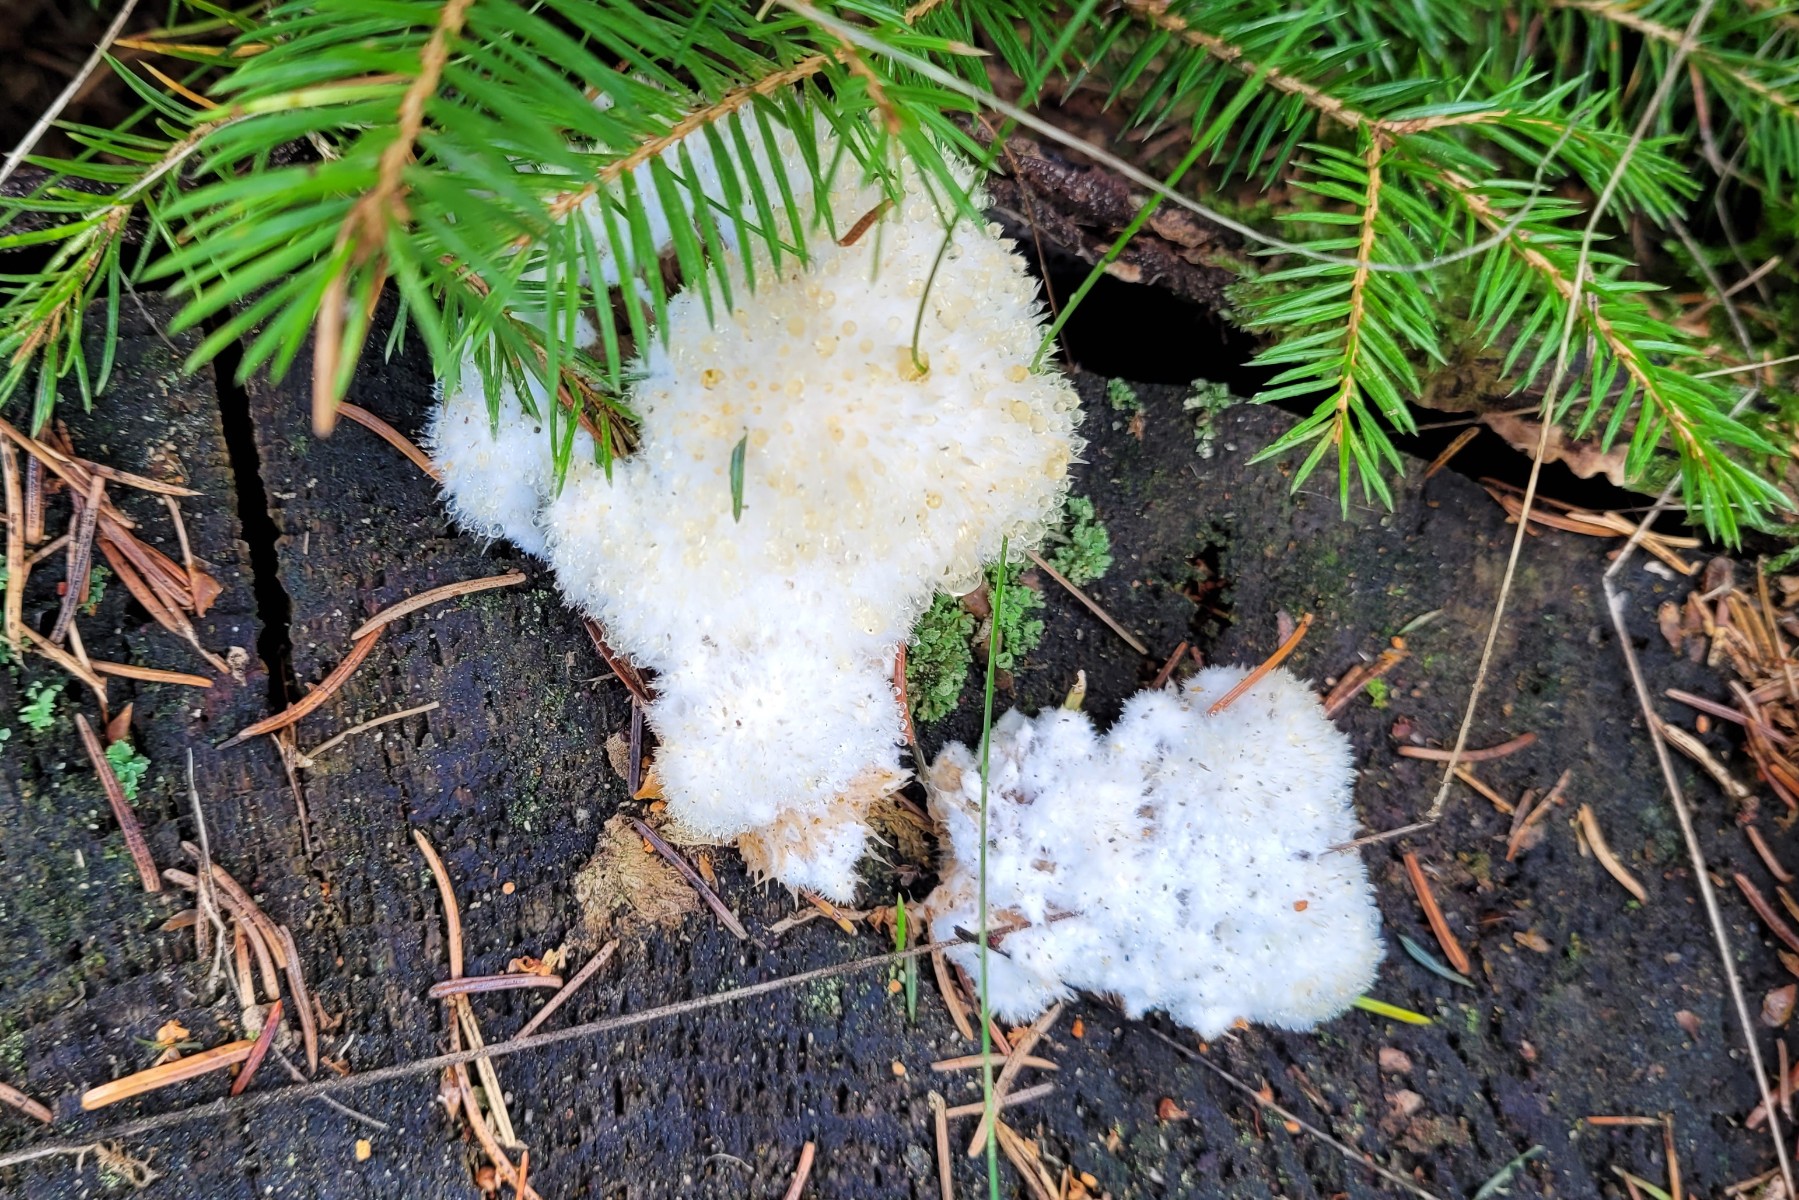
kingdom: Fungi
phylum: Basidiomycota
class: Agaricomycetes
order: Polyporales
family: Dacryobolaceae
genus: Postia
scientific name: Postia ptychogaster
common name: støvende kødporesvamp
